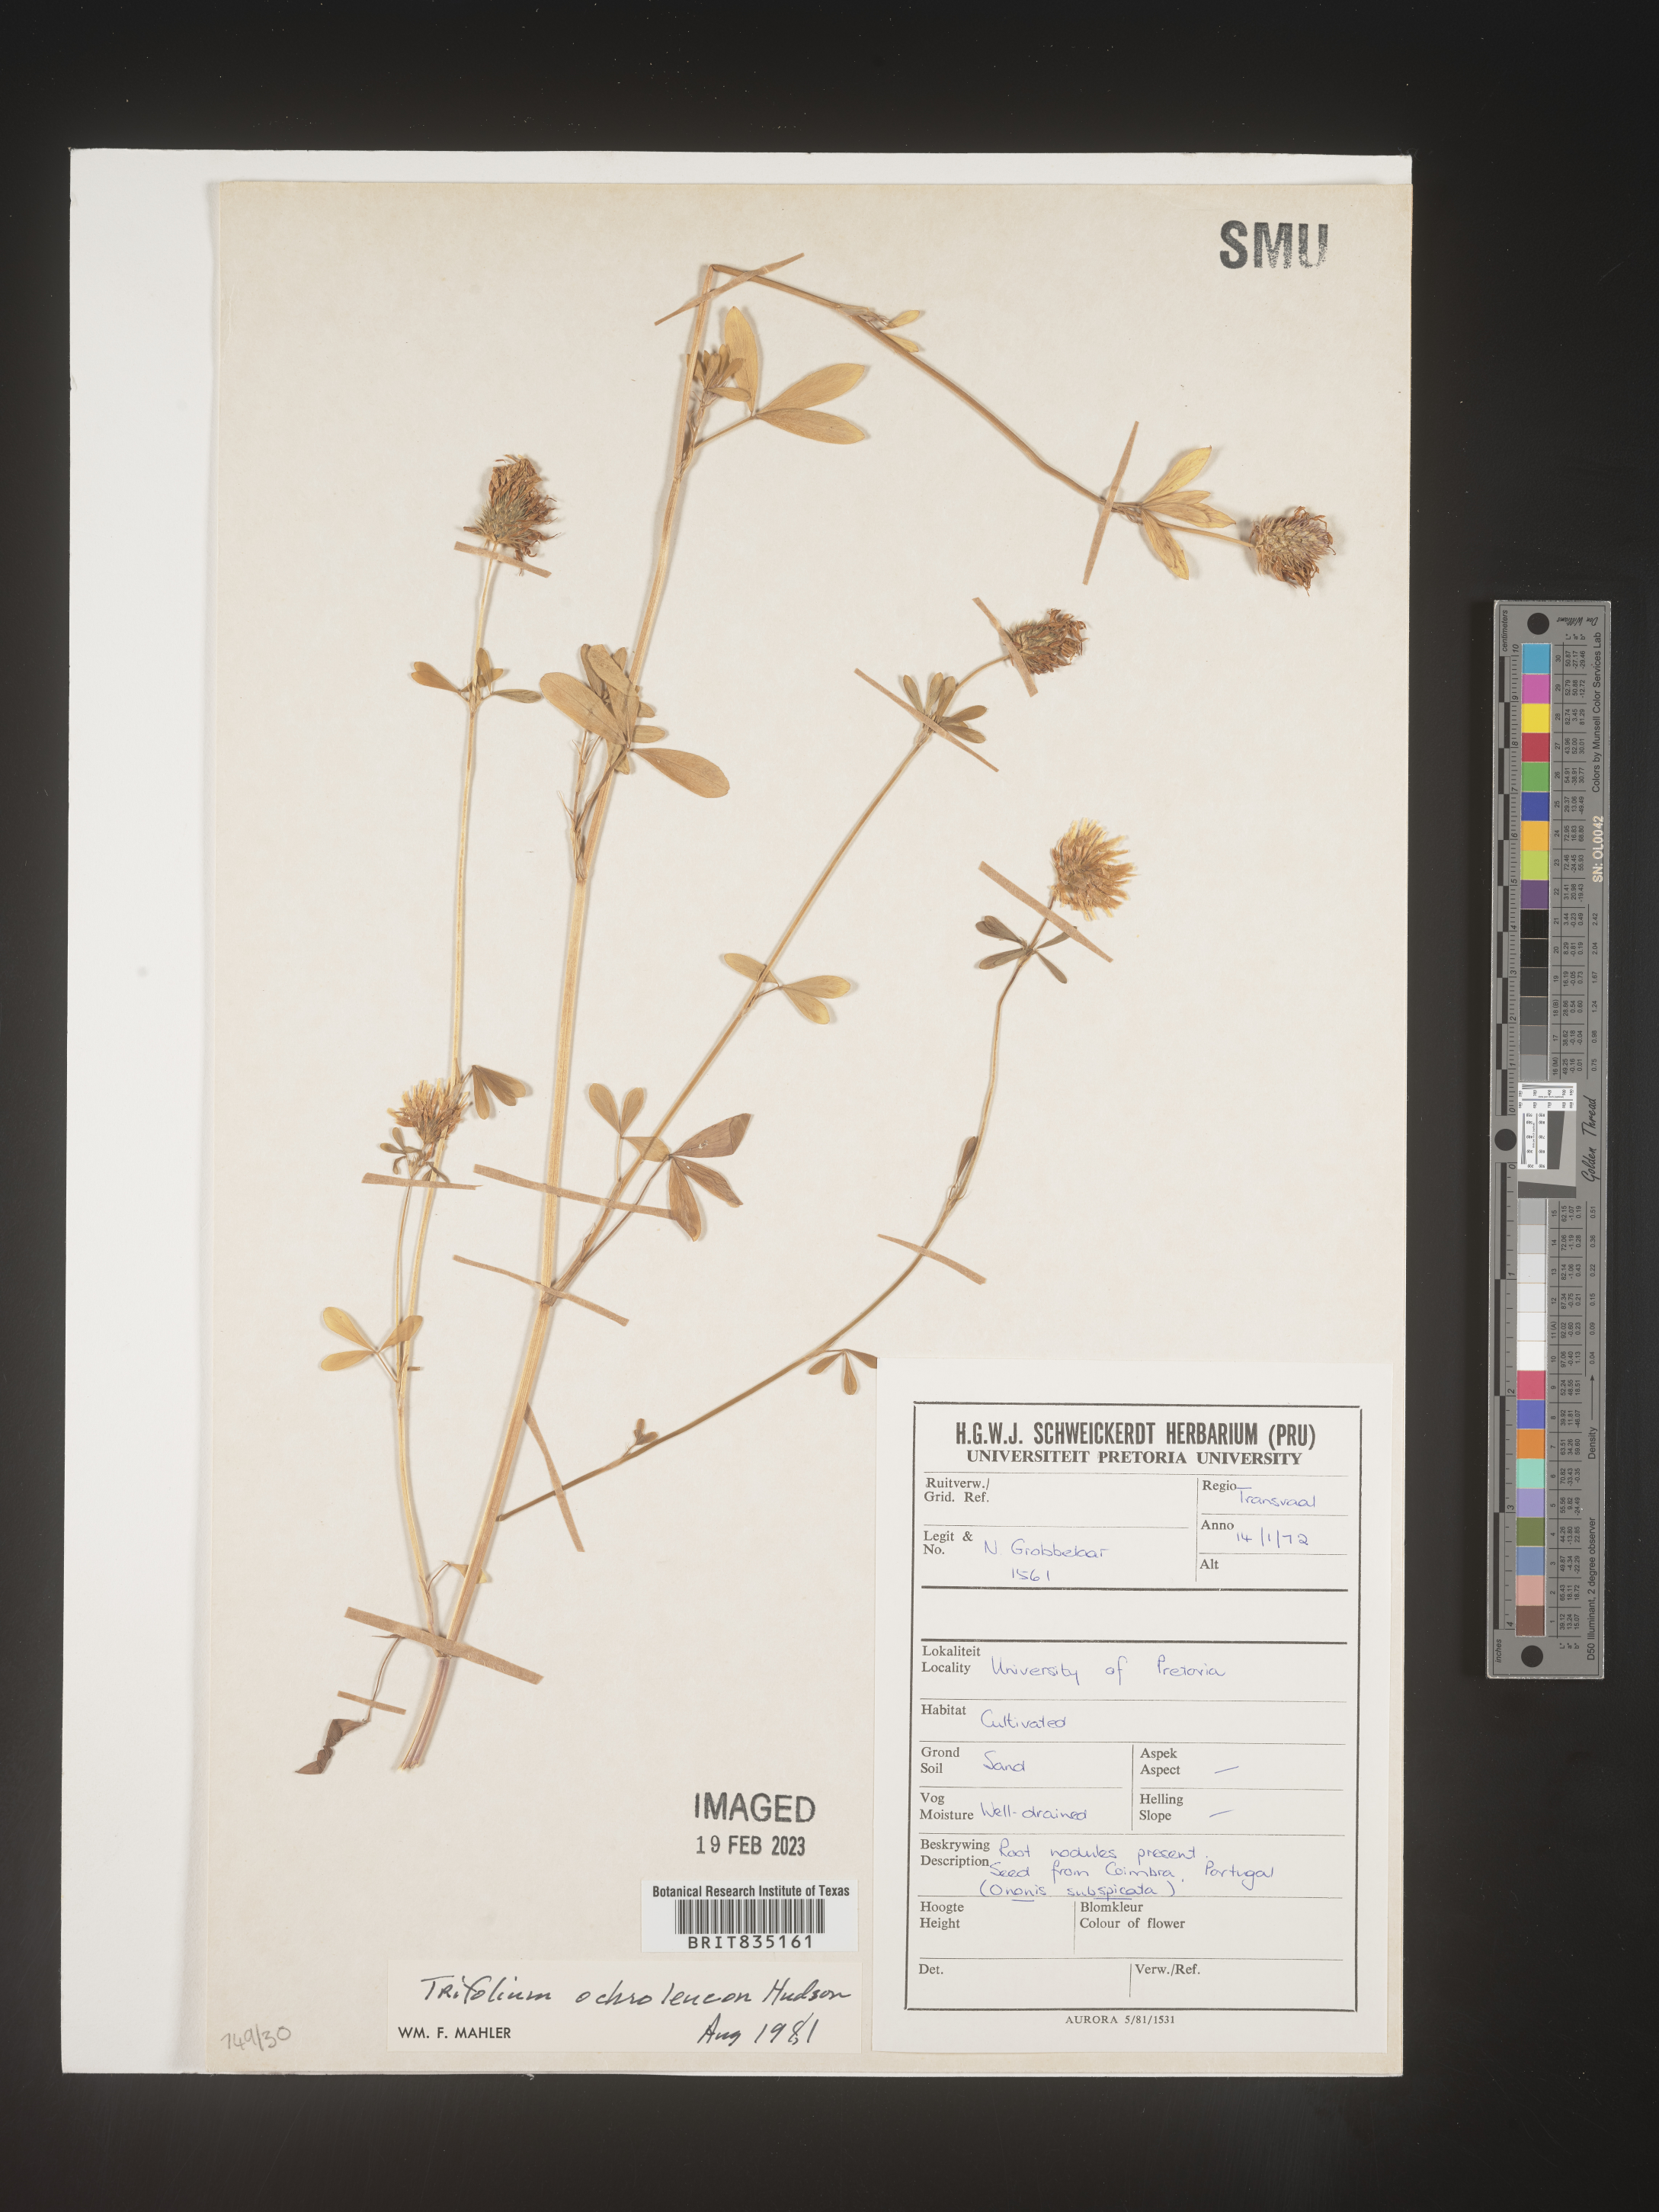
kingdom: Plantae
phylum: Tracheophyta
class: Magnoliopsida
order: Fabales
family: Fabaceae
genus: Trigonella
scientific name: Trigonella
